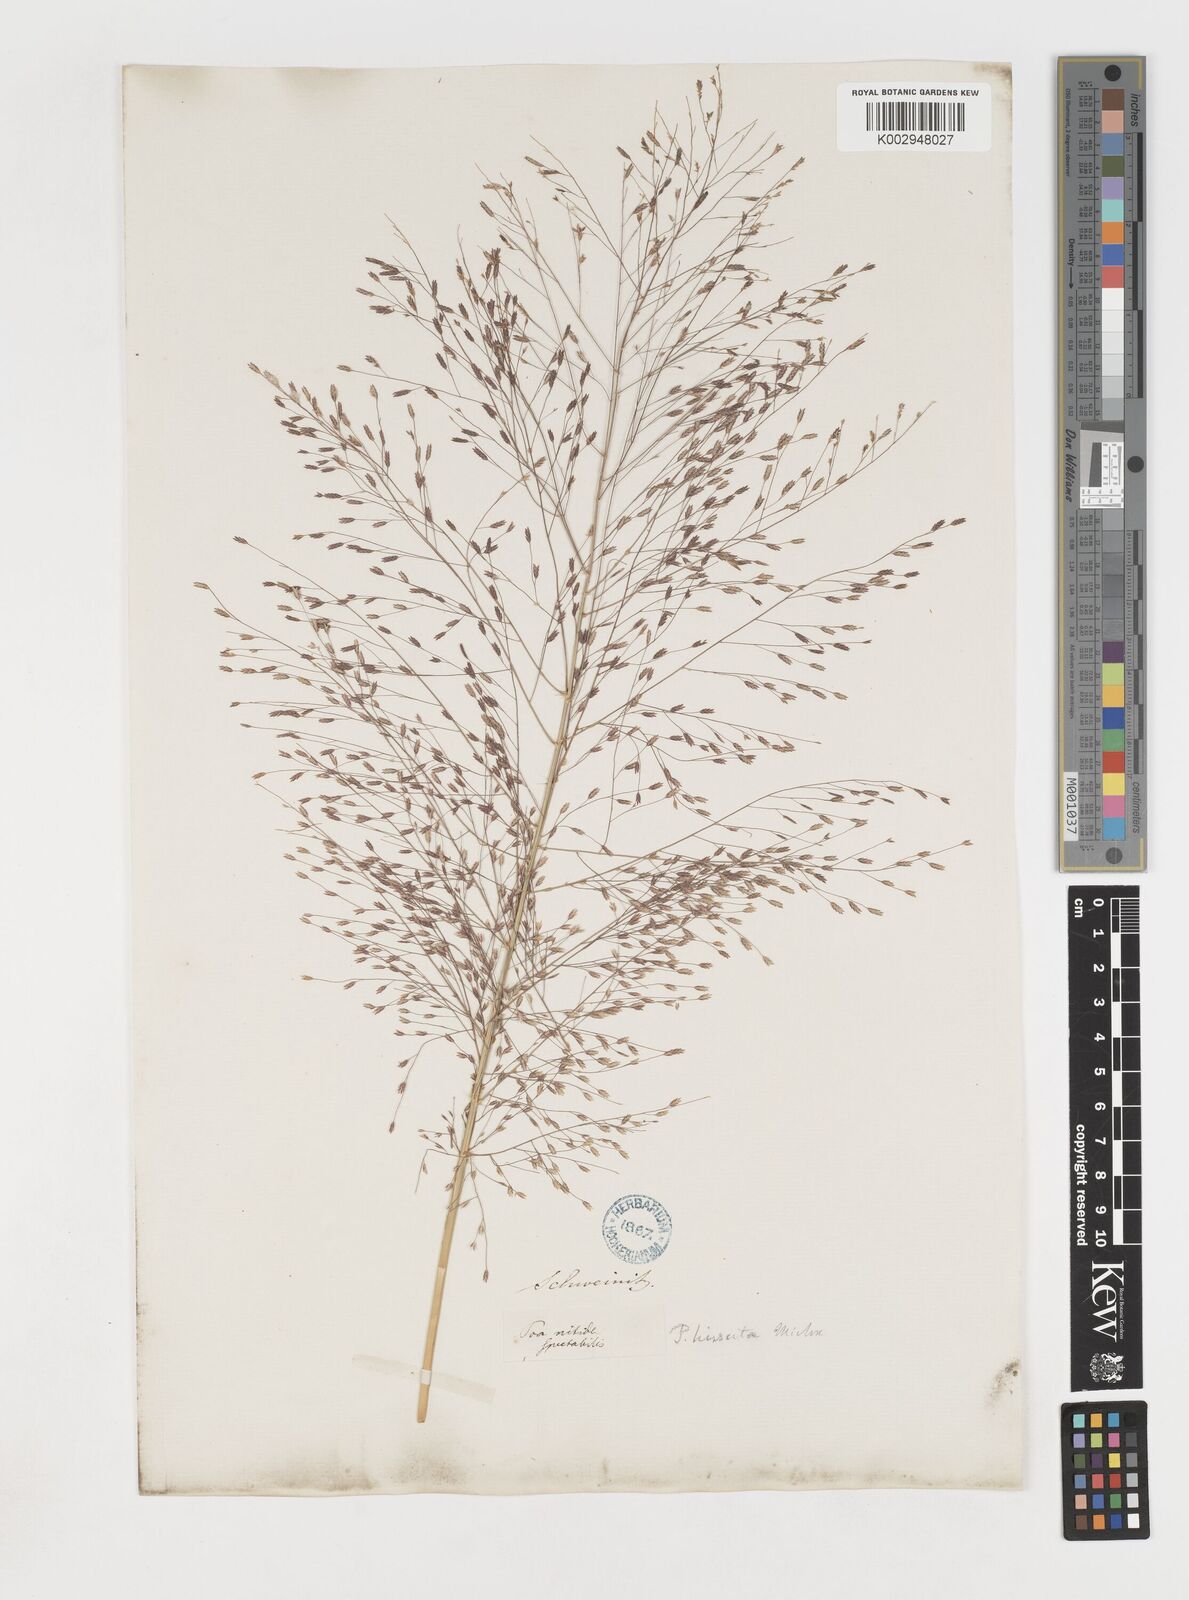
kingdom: Plantae
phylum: Tracheophyta
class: Liliopsida
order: Poales
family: Poaceae
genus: Eragrostis
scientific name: Eragrostis spectabilis
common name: Petticoat-climber
